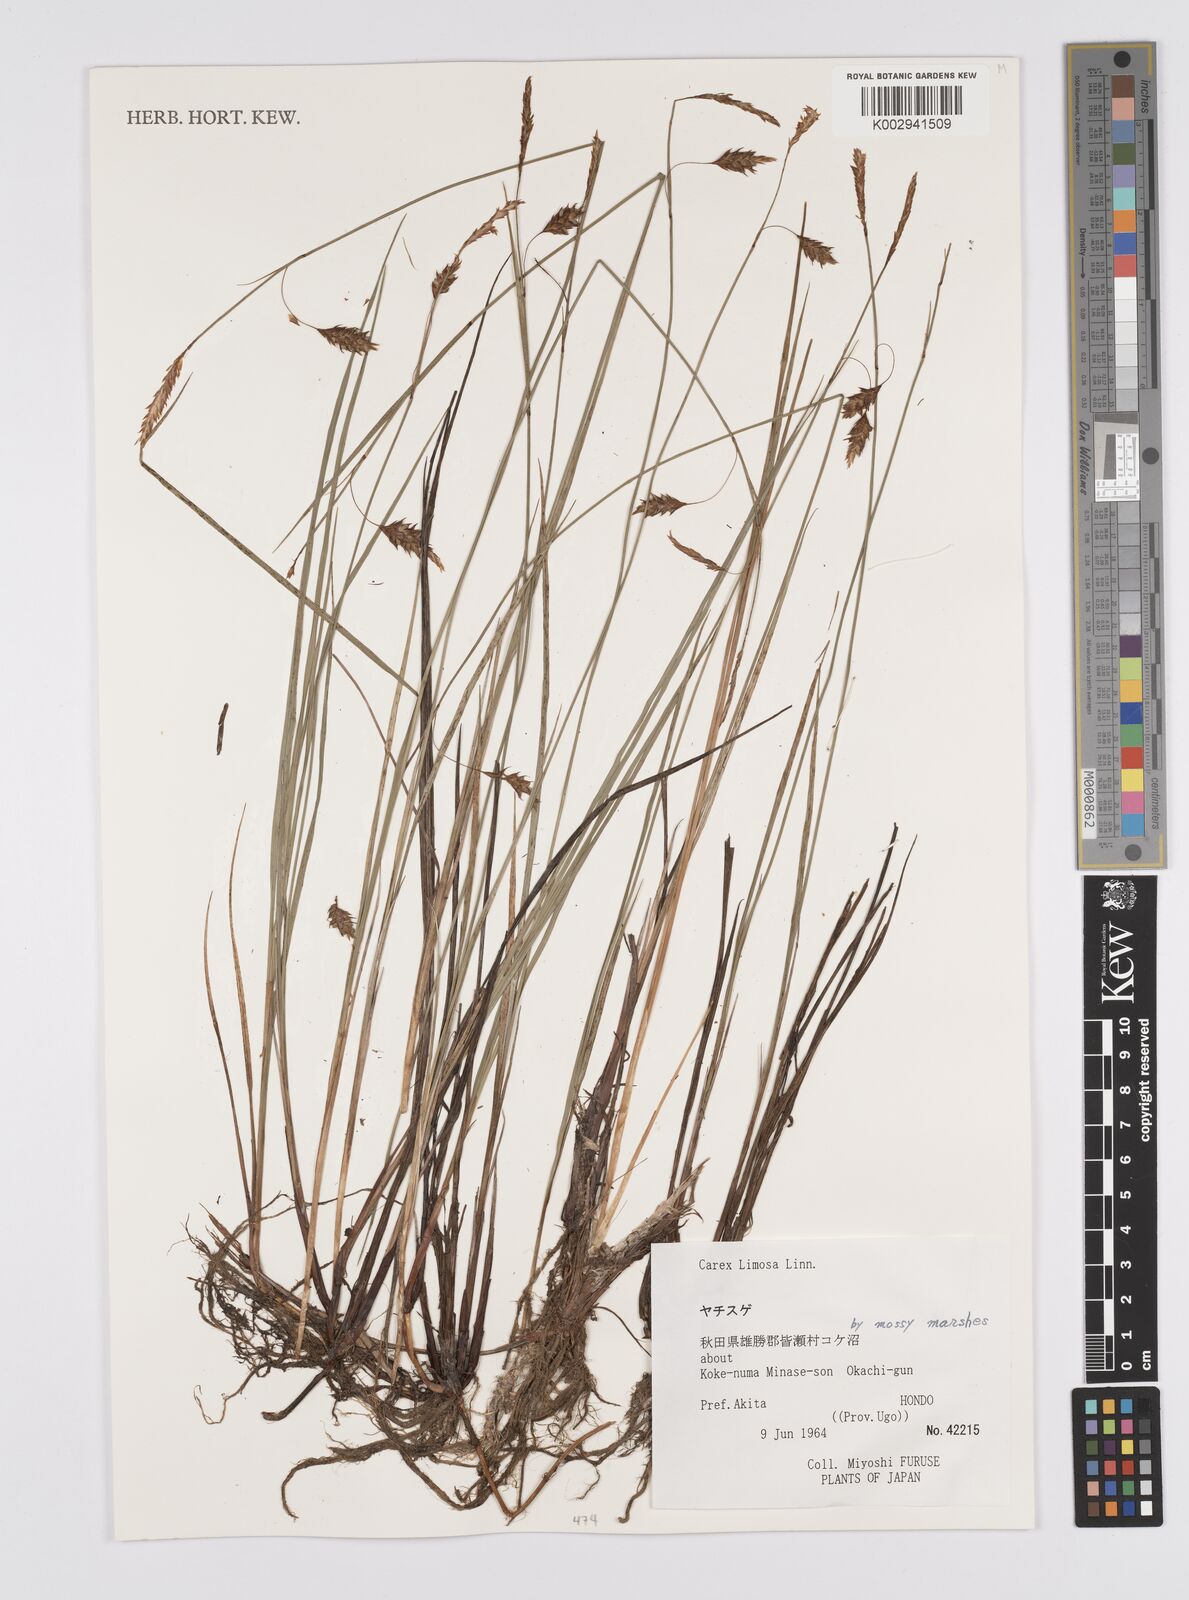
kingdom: Plantae
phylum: Tracheophyta
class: Liliopsida
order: Poales
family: Cyperaceae
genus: Carex
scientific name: Carex limosa
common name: Bog sedge
